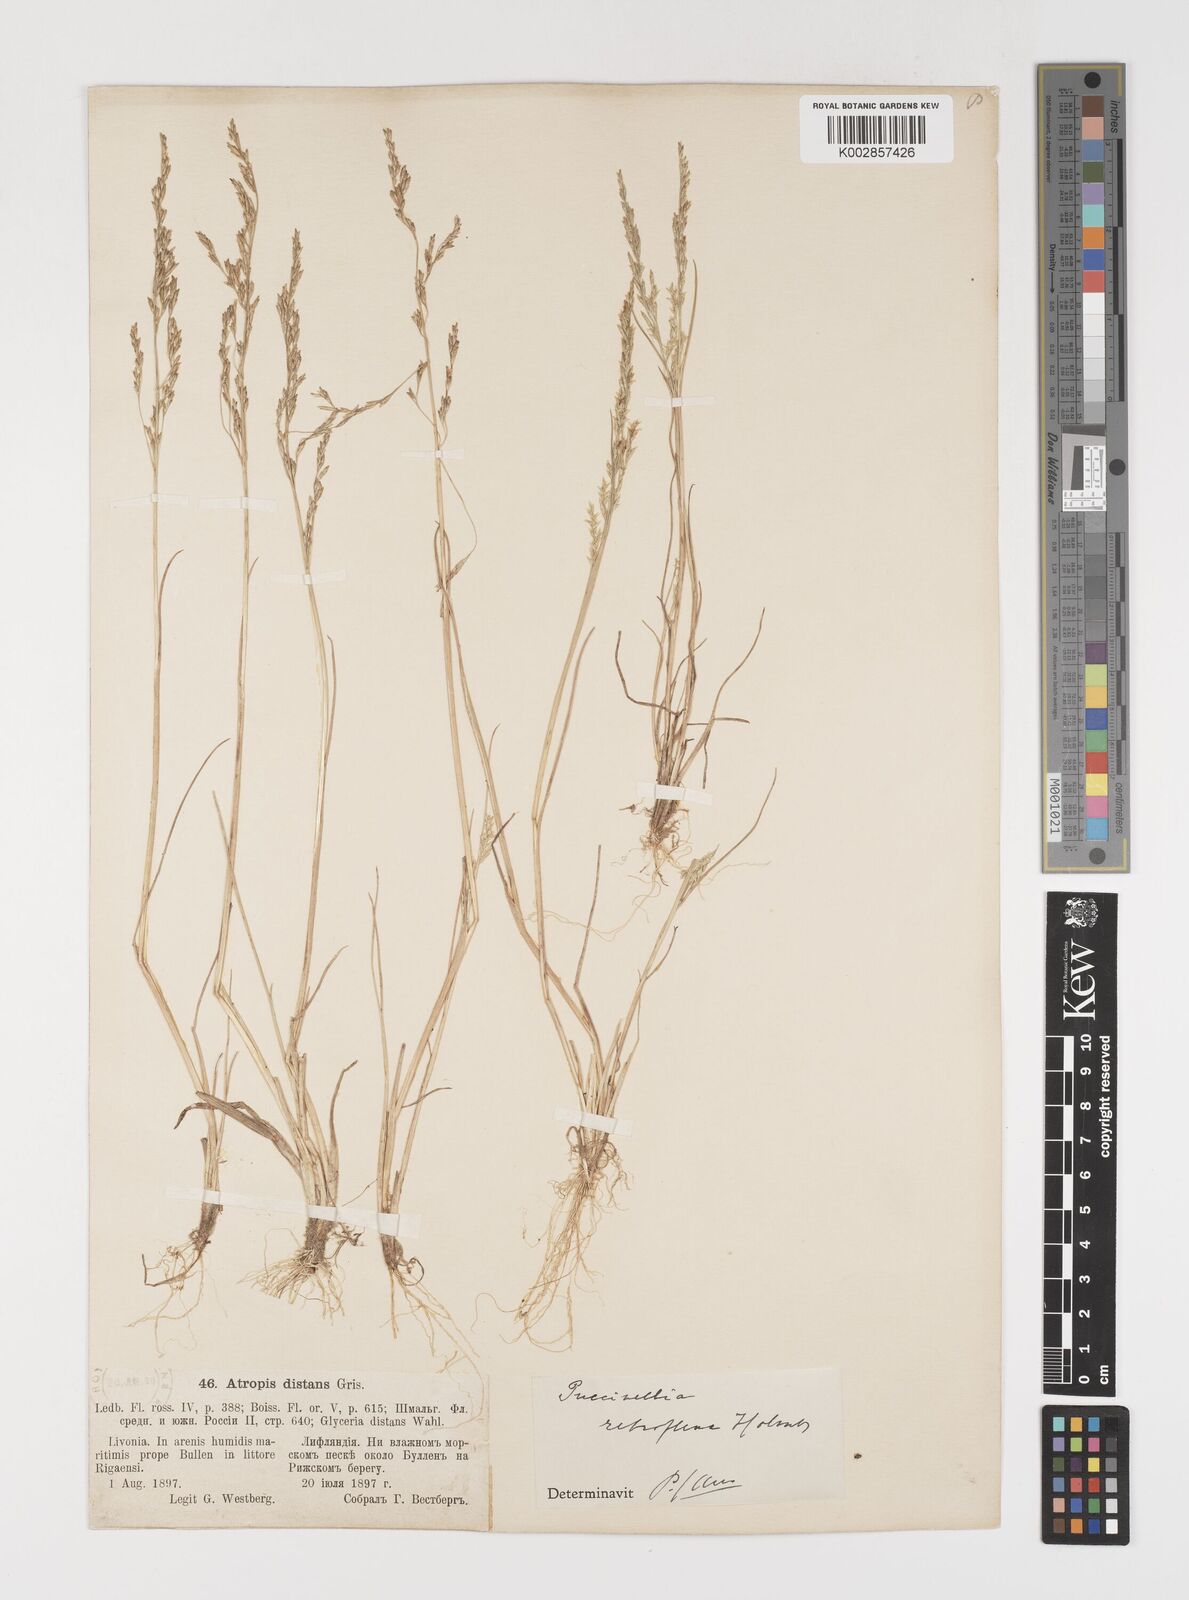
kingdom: Plantae
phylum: Tracheophyta
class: Liliopsida
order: Poales
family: Poaceae
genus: Puccinellia
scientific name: Puccinellia distans
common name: Weeping alkaligrass
